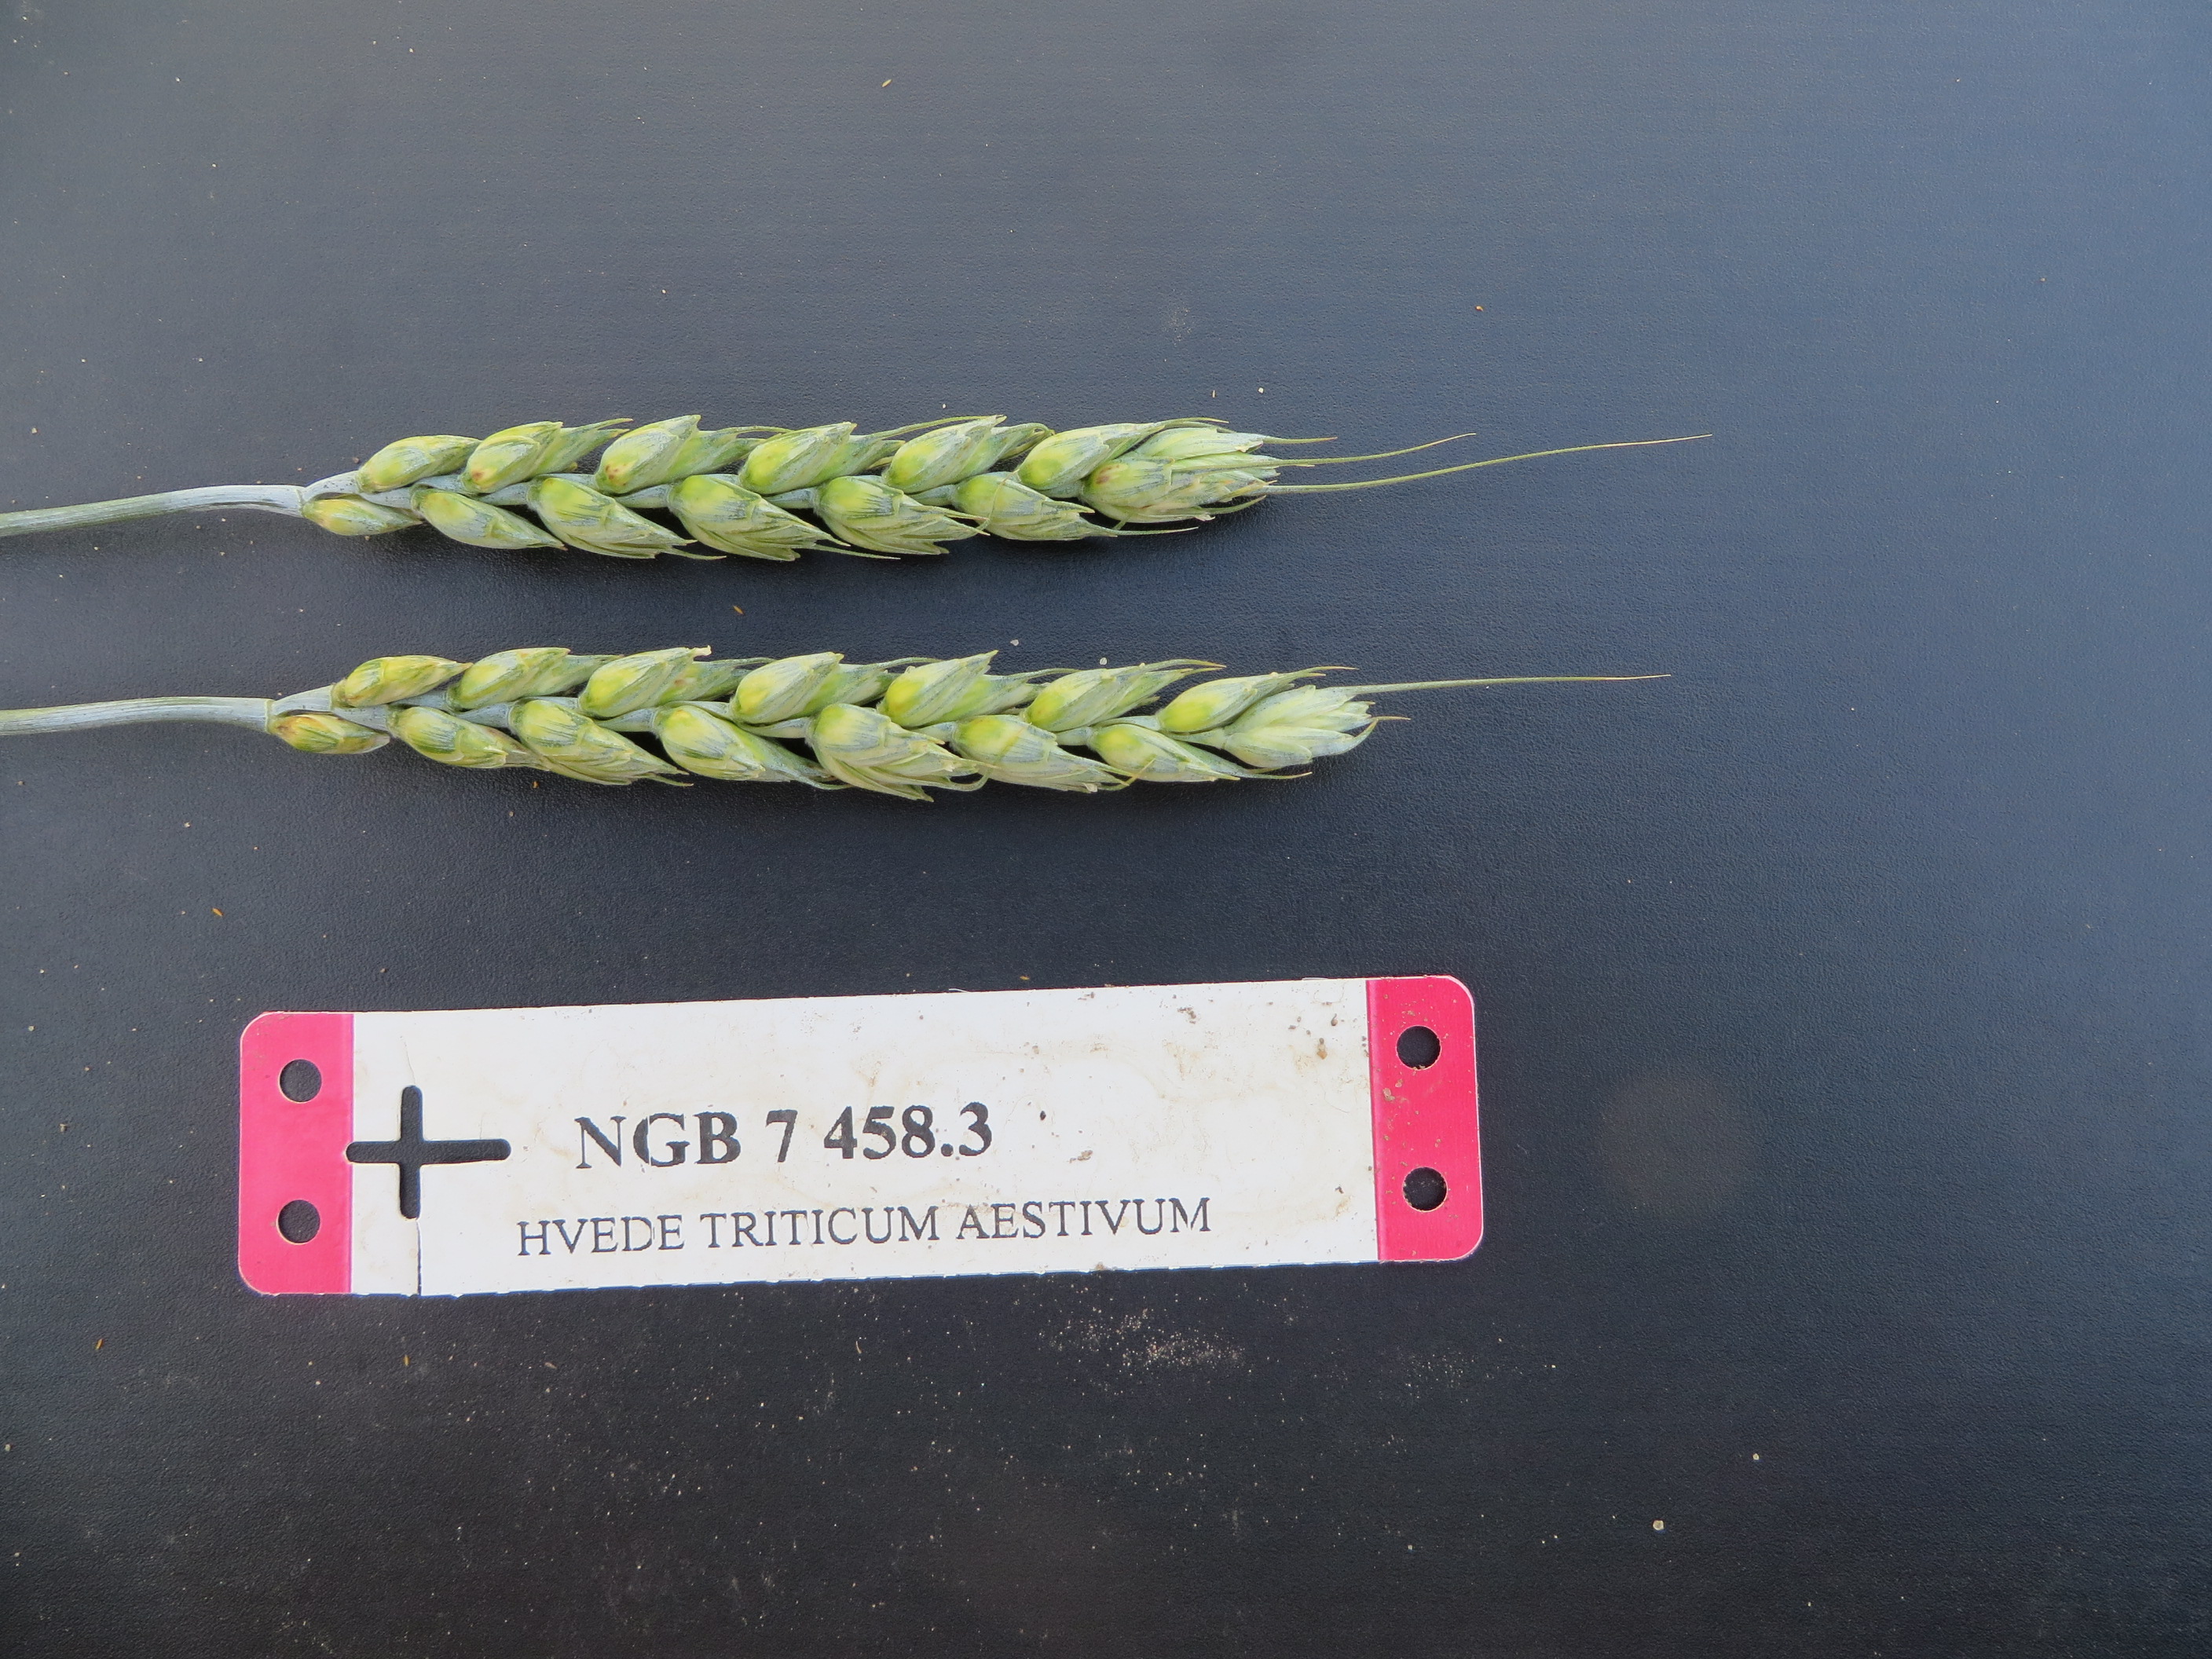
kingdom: Plantae
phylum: Tracheophyta
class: Liliopsida
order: Poales
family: Poaceae
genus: Triticum
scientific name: Triticum aestivum
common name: Common wheat
